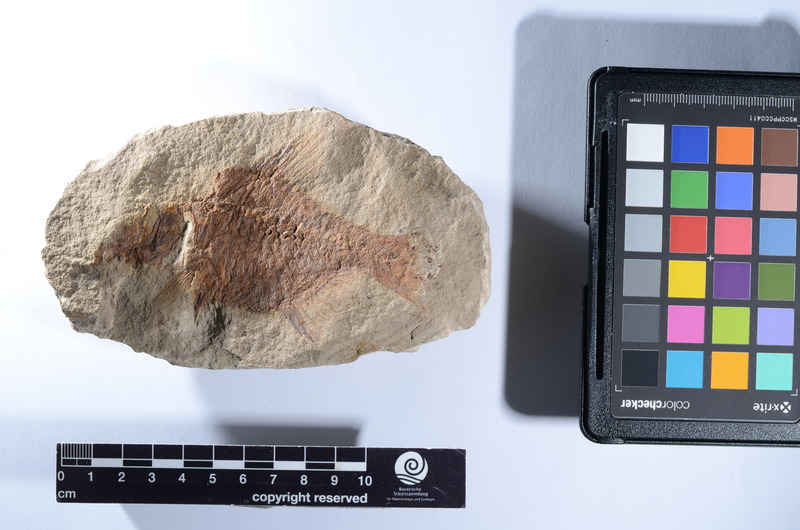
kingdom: Animalia
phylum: Chordata
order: Beryciformes
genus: Acrogaster
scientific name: Acrogaster parvus
